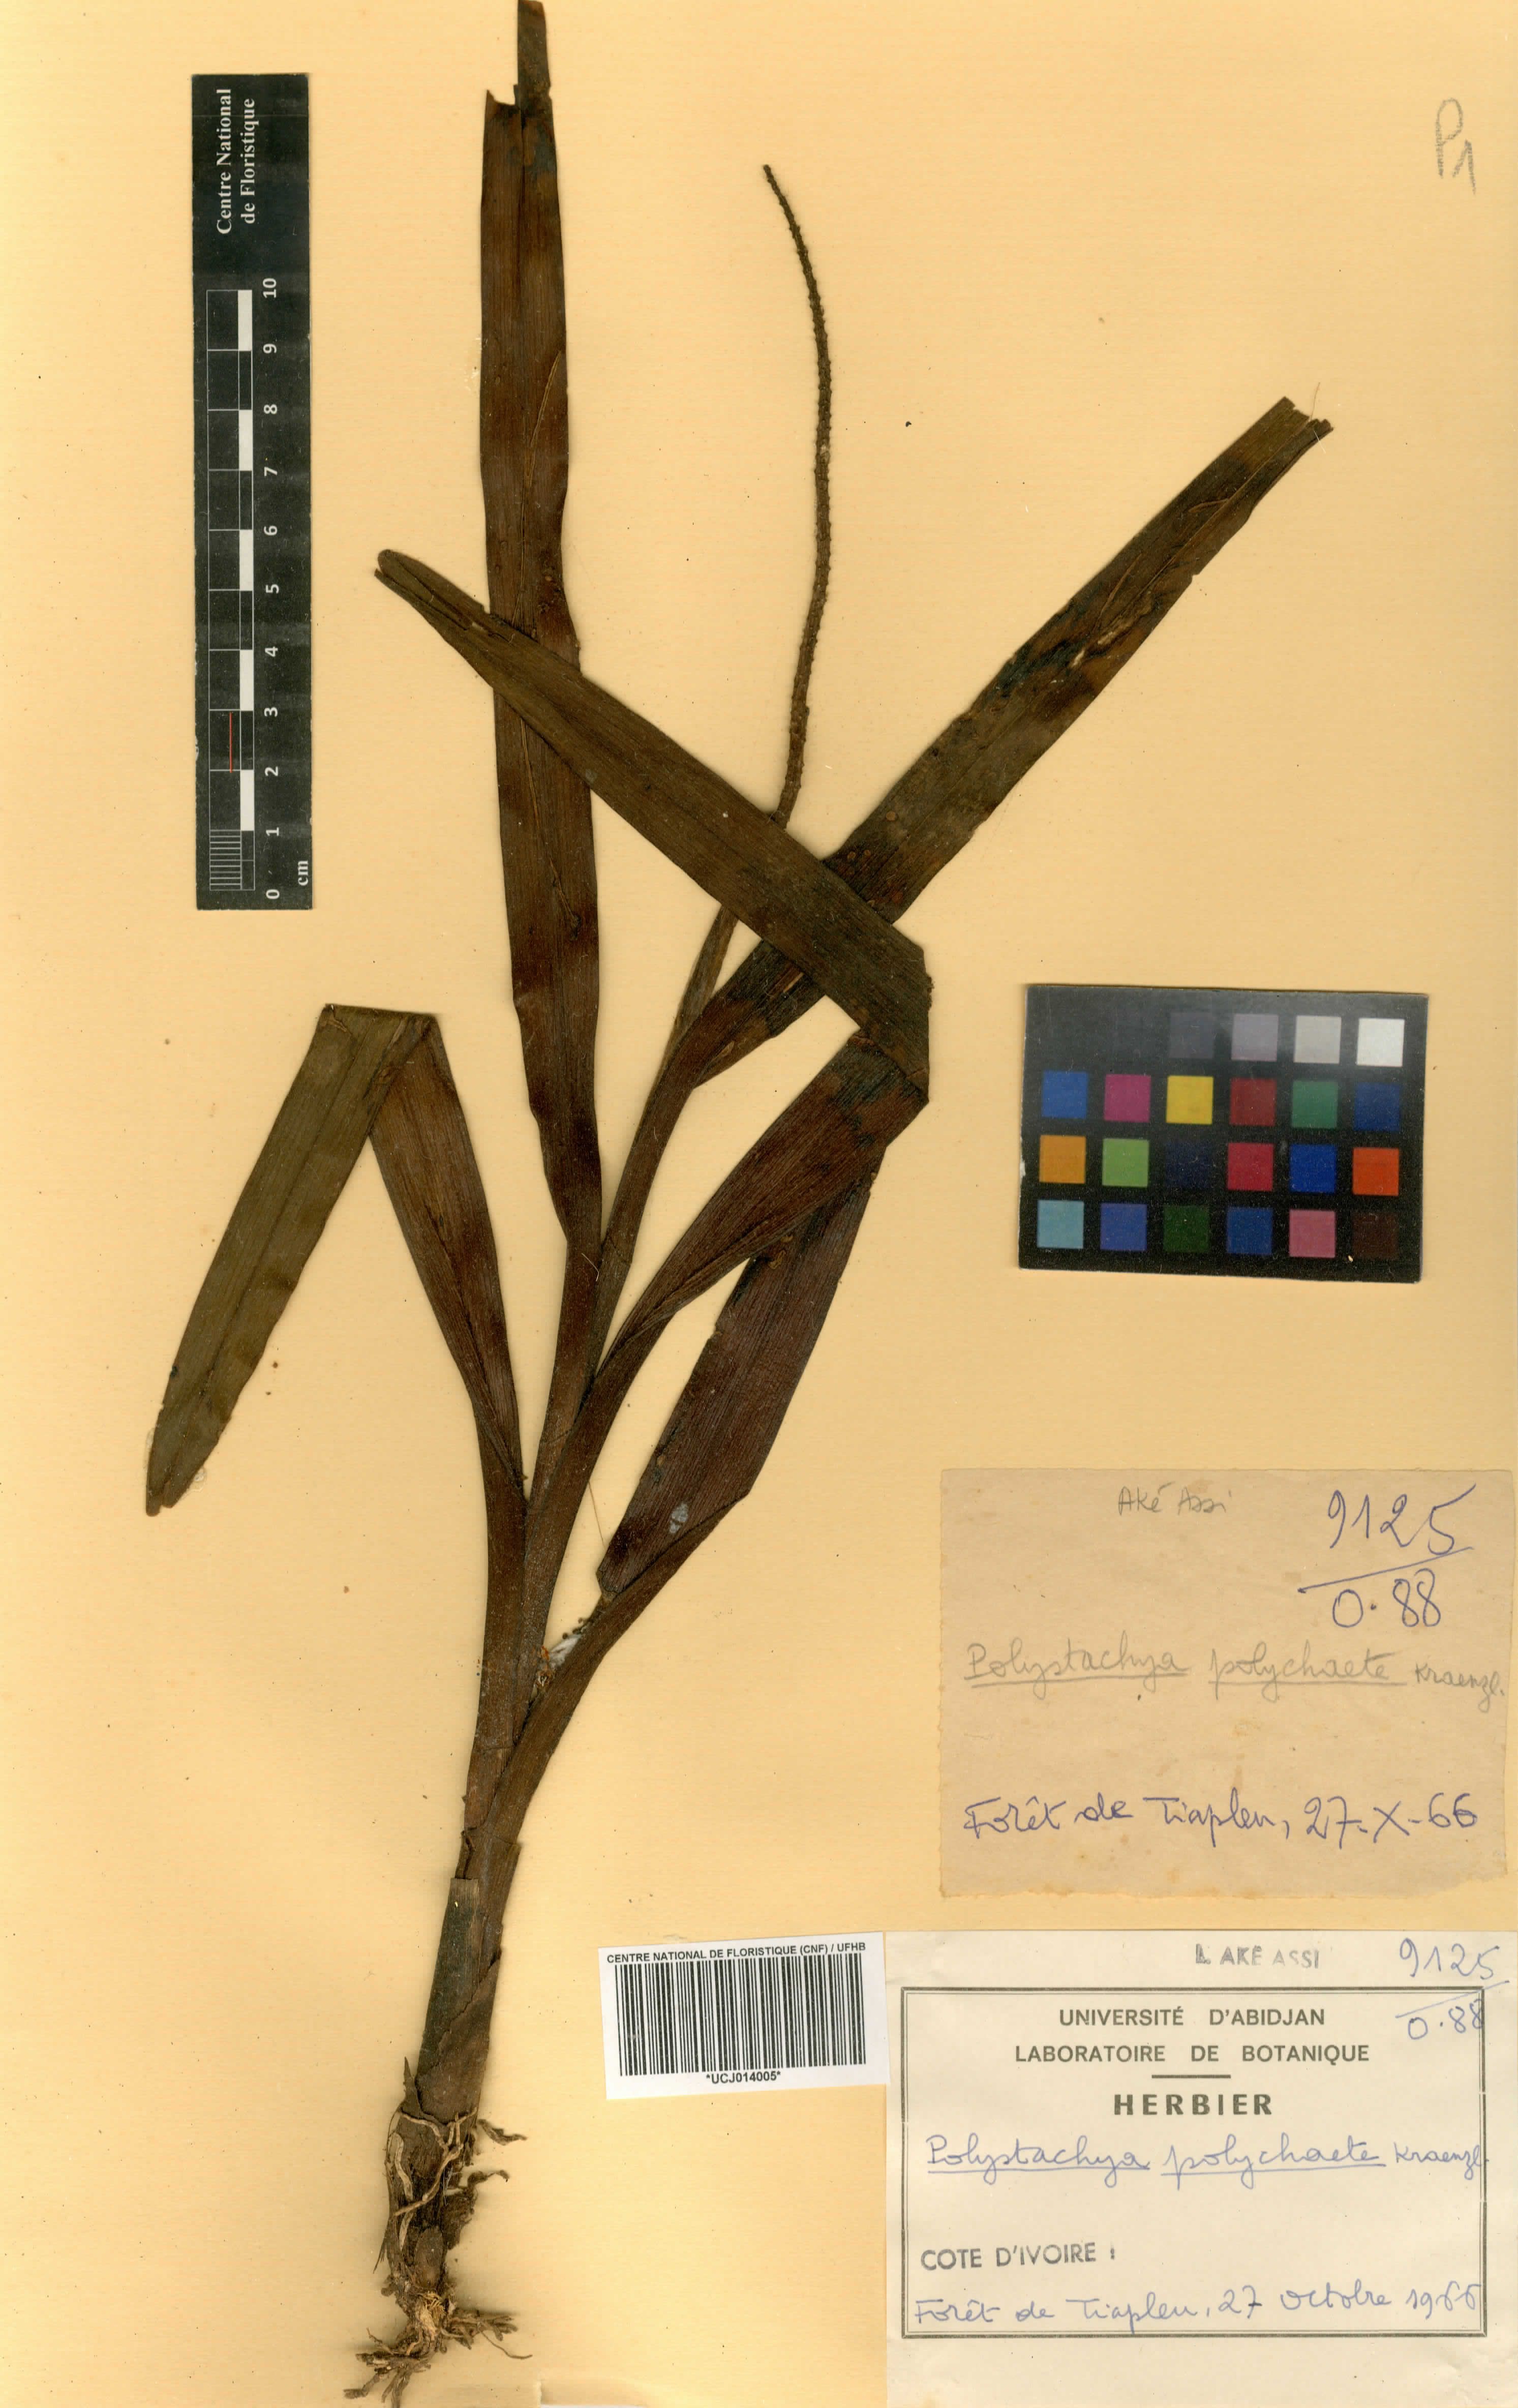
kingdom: Plantae
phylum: Tracheophyta
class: Liliopsida
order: Asparagales
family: Orchidaceae
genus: Polystachya
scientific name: Polystachya polychaete
